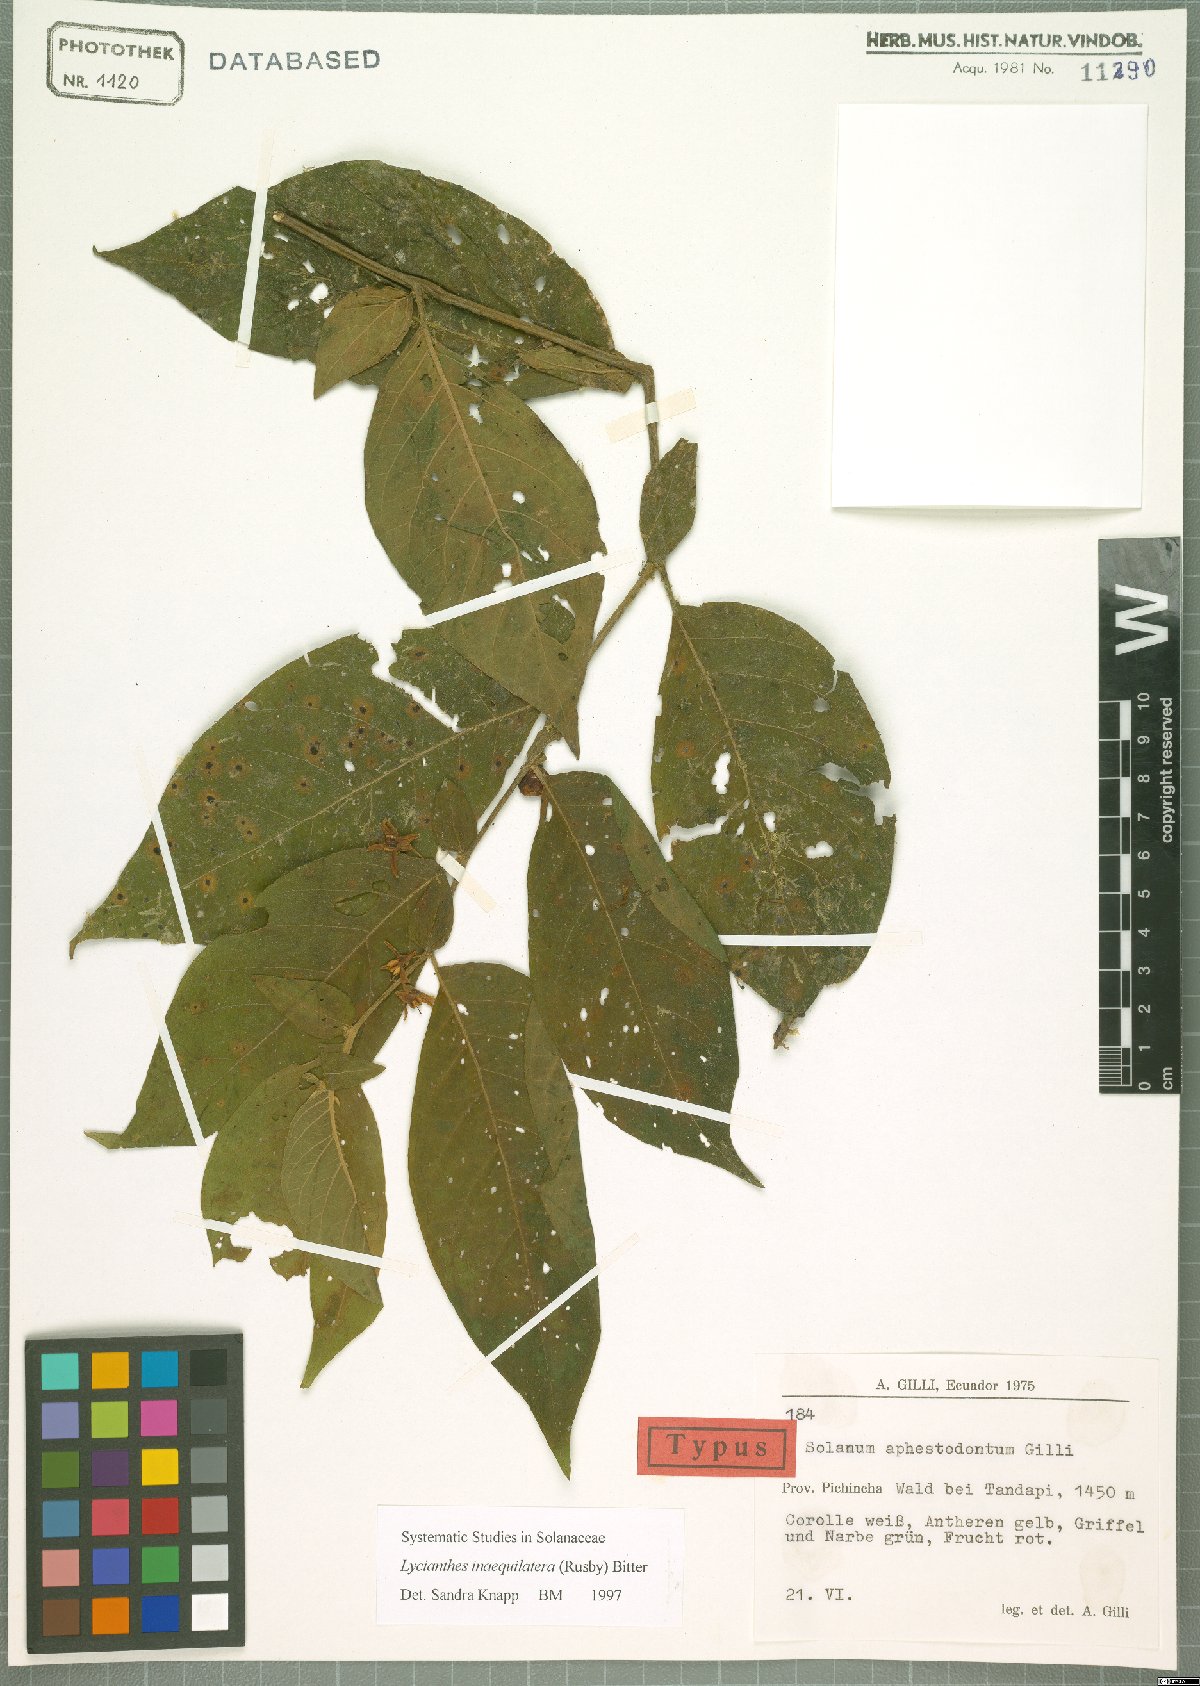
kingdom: Plantae
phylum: Tracheophyta
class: Magnoliopsida
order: Solanales
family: Solanaceae
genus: Lycianthes
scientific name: Lycianthes inaequilatera
